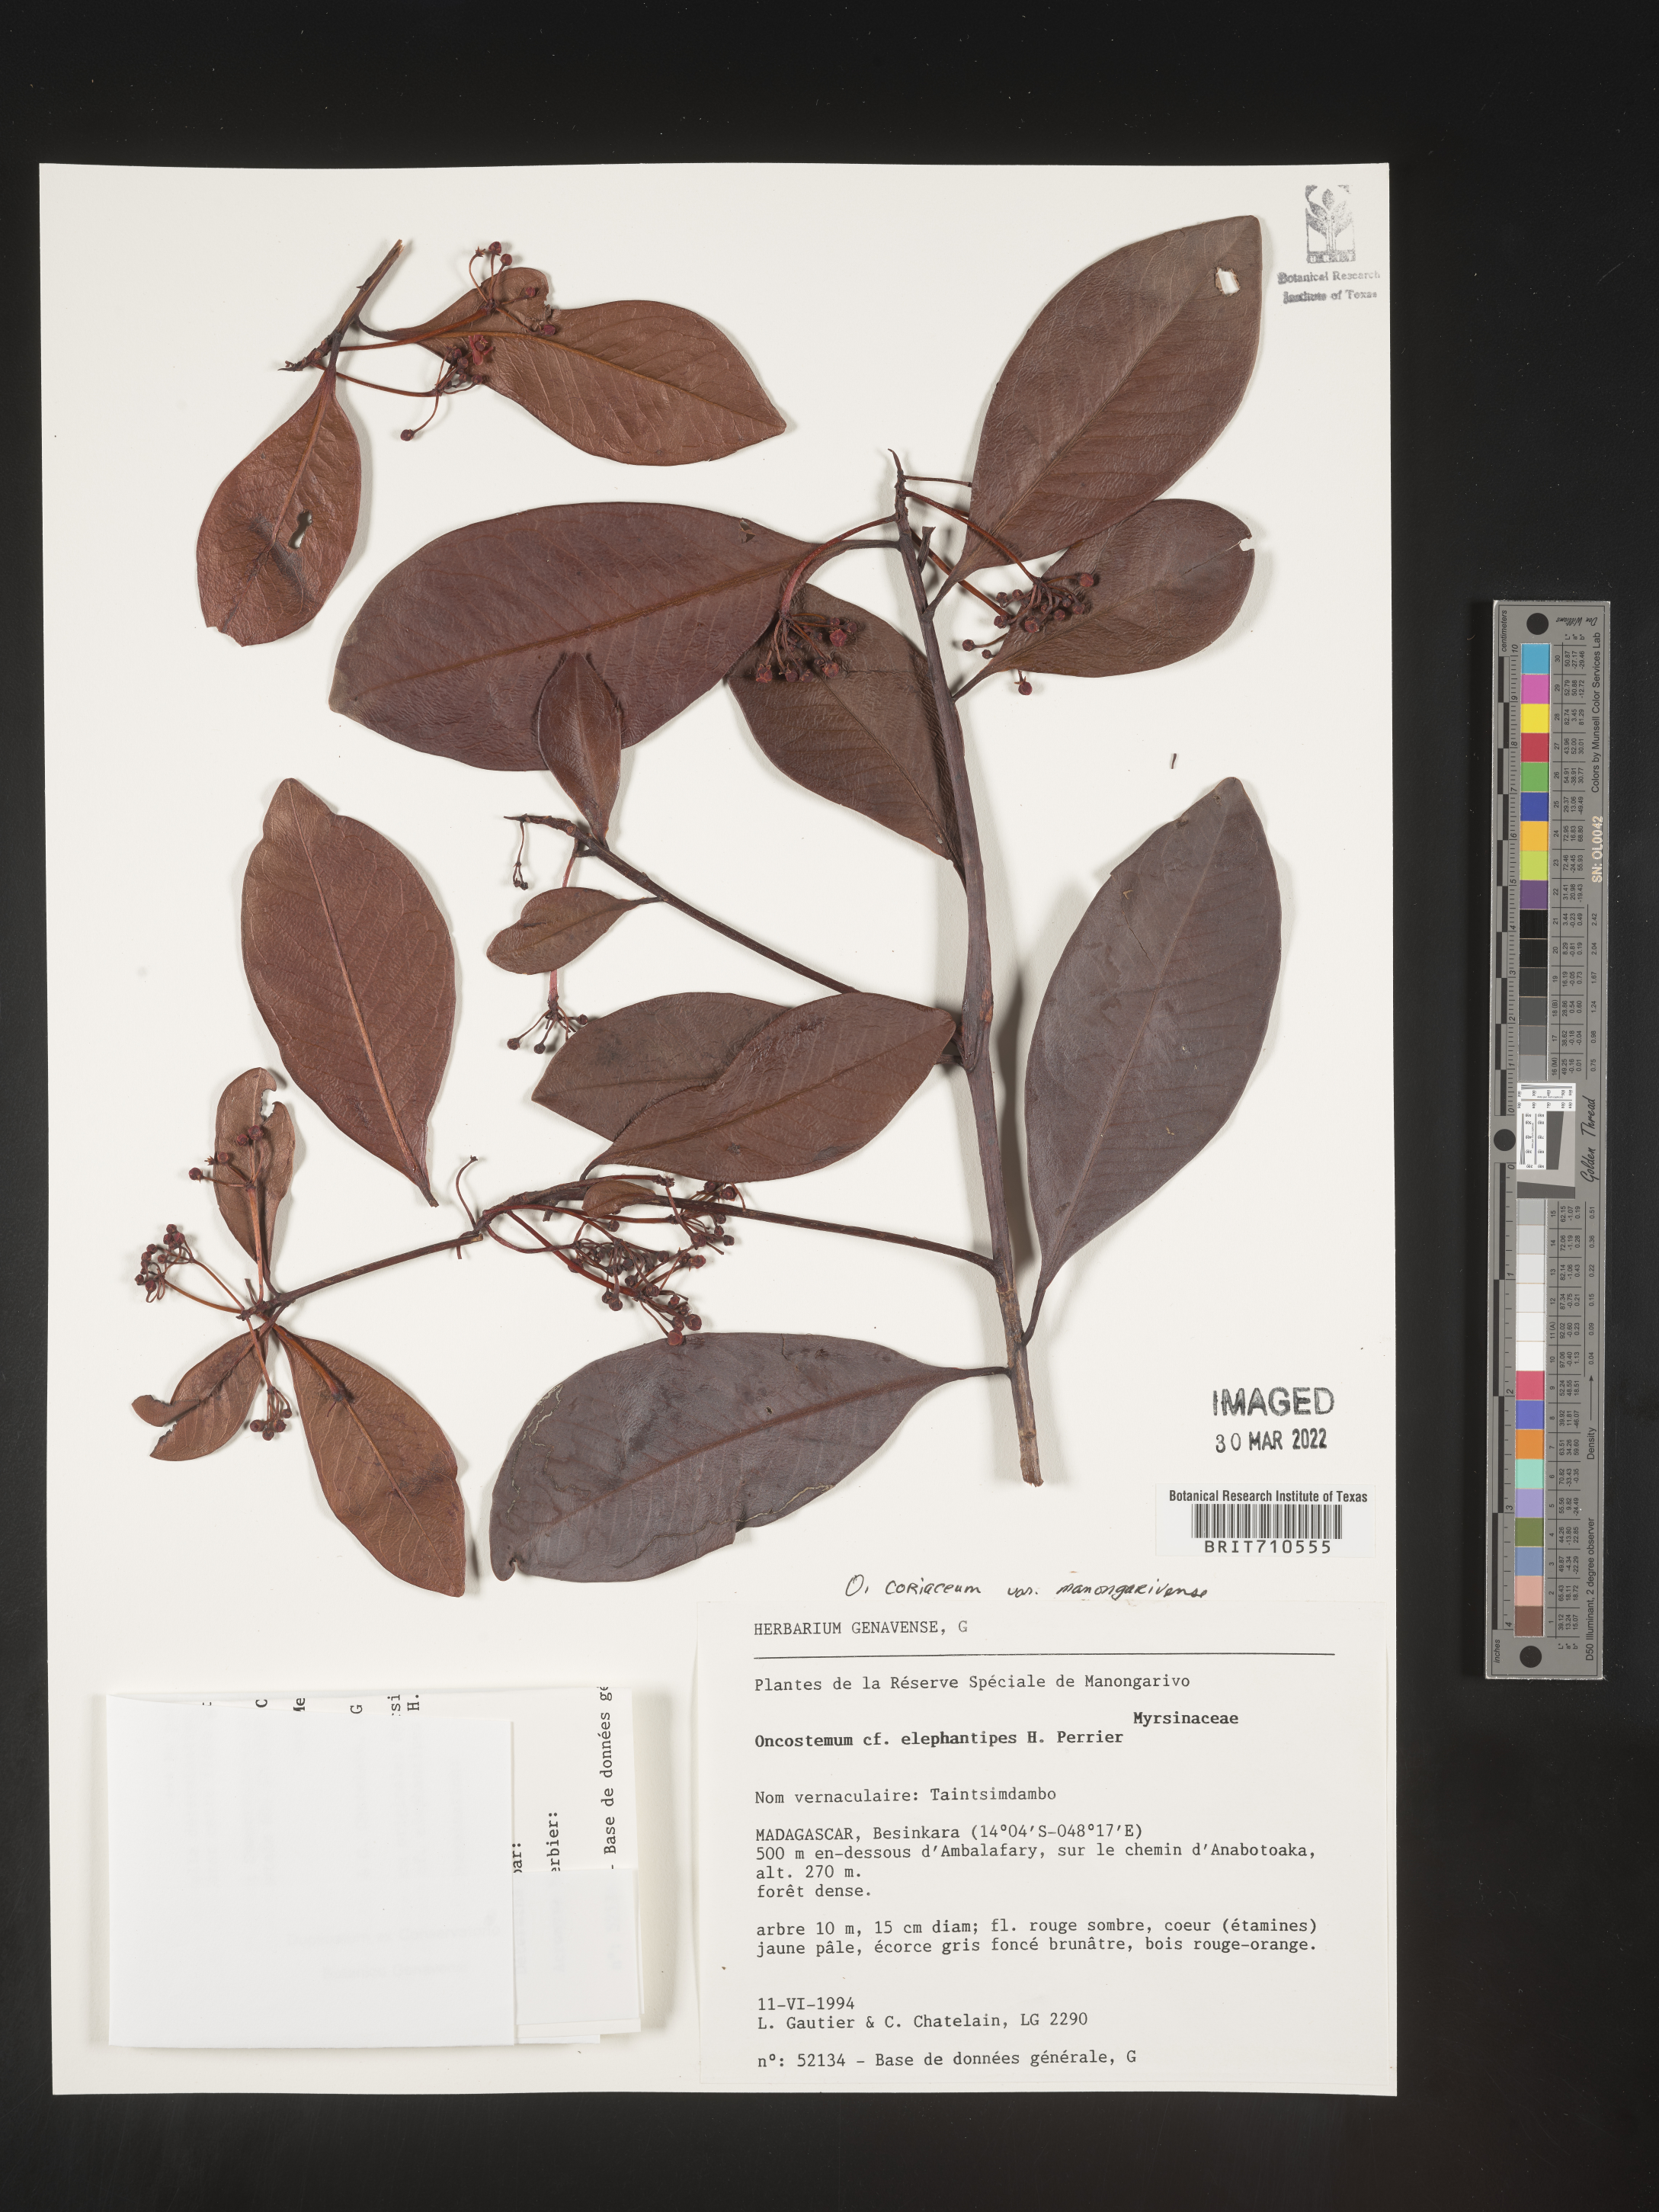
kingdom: Plantae
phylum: Tracheophyta
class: Magnoliopsida
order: Ericales
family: Primulaceae
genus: Oncostemum
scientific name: Oncostemum
